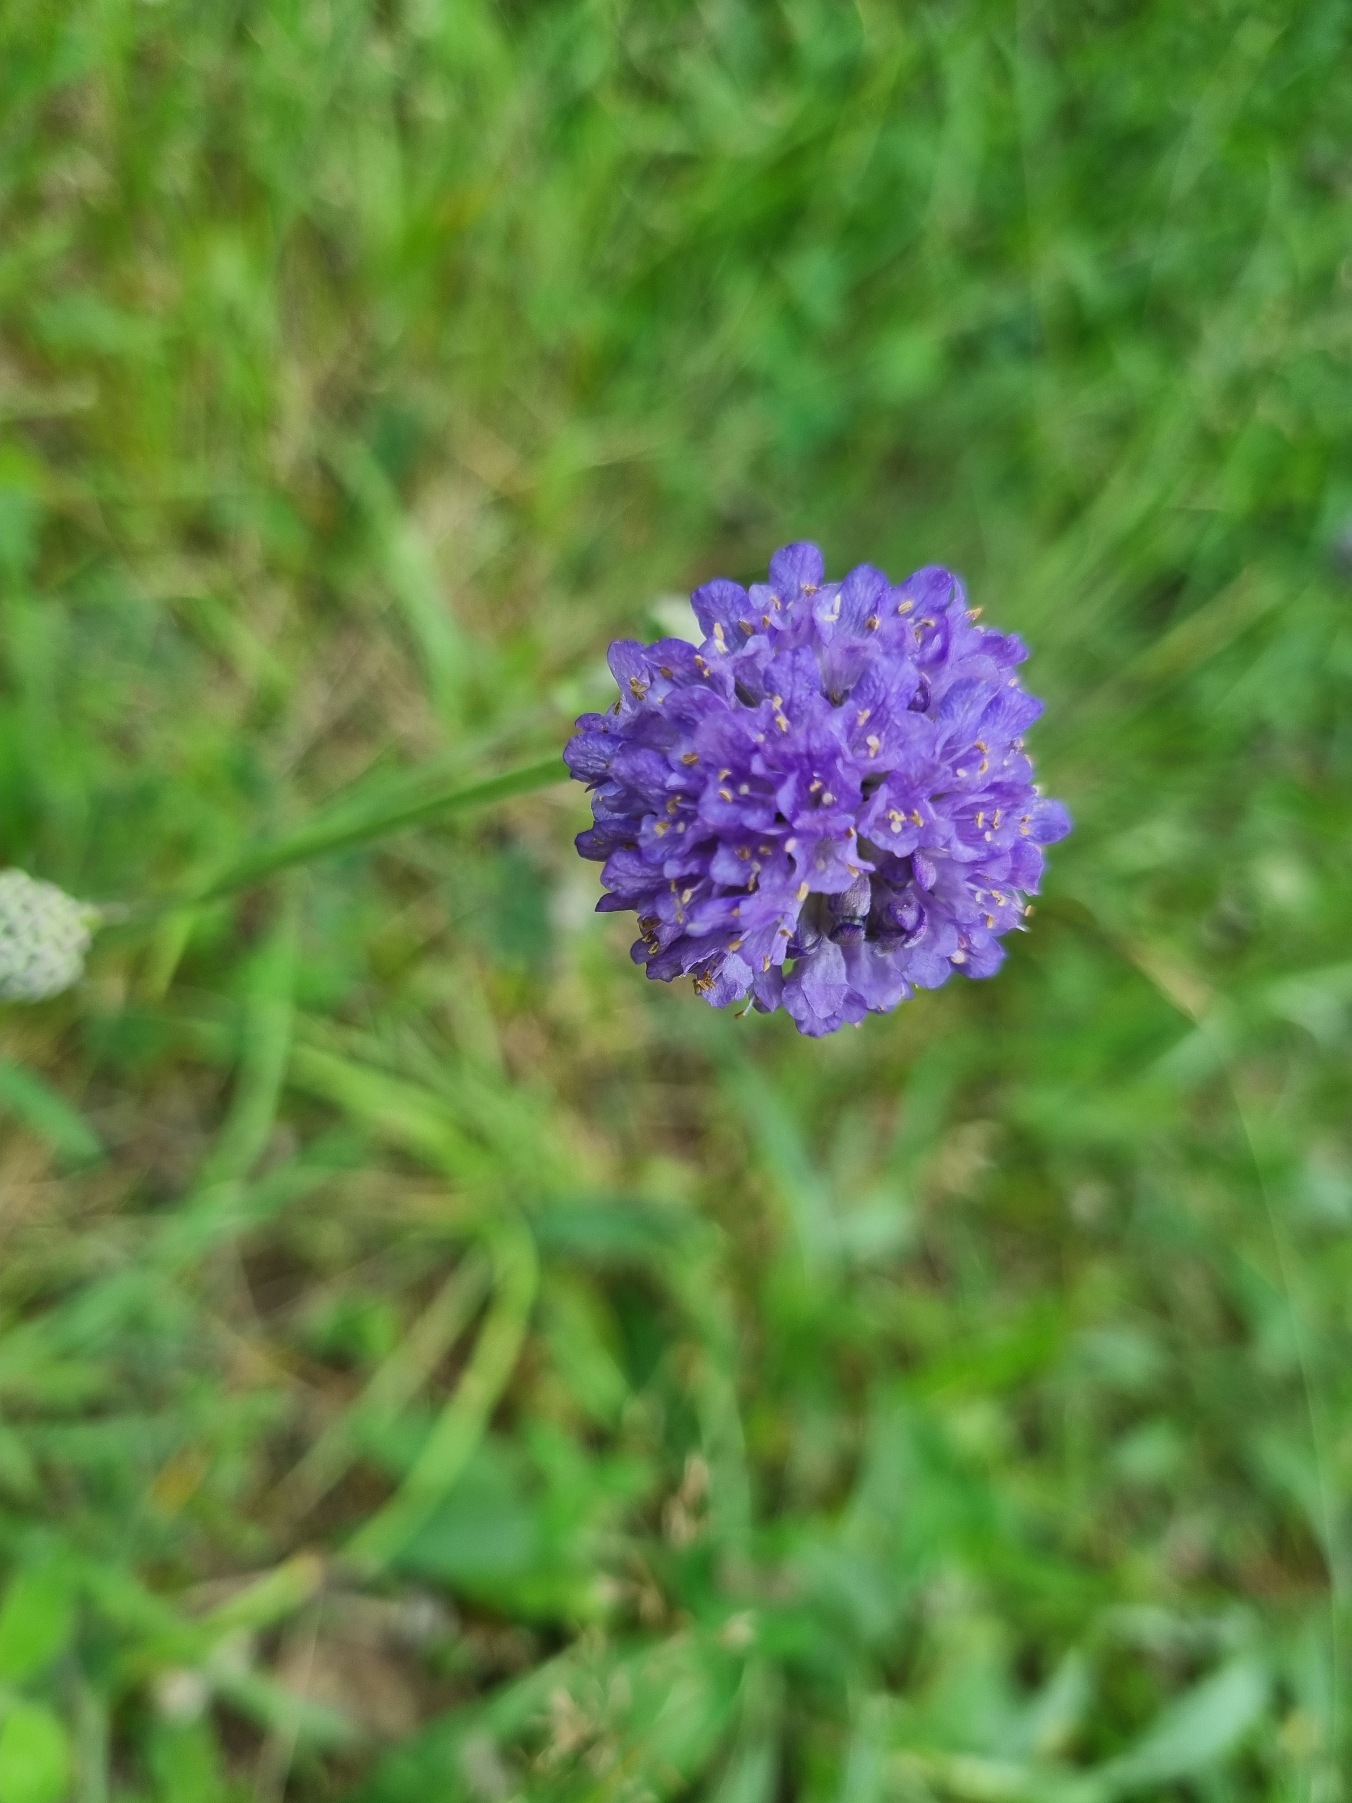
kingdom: Plantae
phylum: Tracheophyta
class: Magnoliopsida
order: Dipsacales
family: Caprifoliaceae
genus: Succisa
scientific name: Succisa pratensis
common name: Djævelsbid
